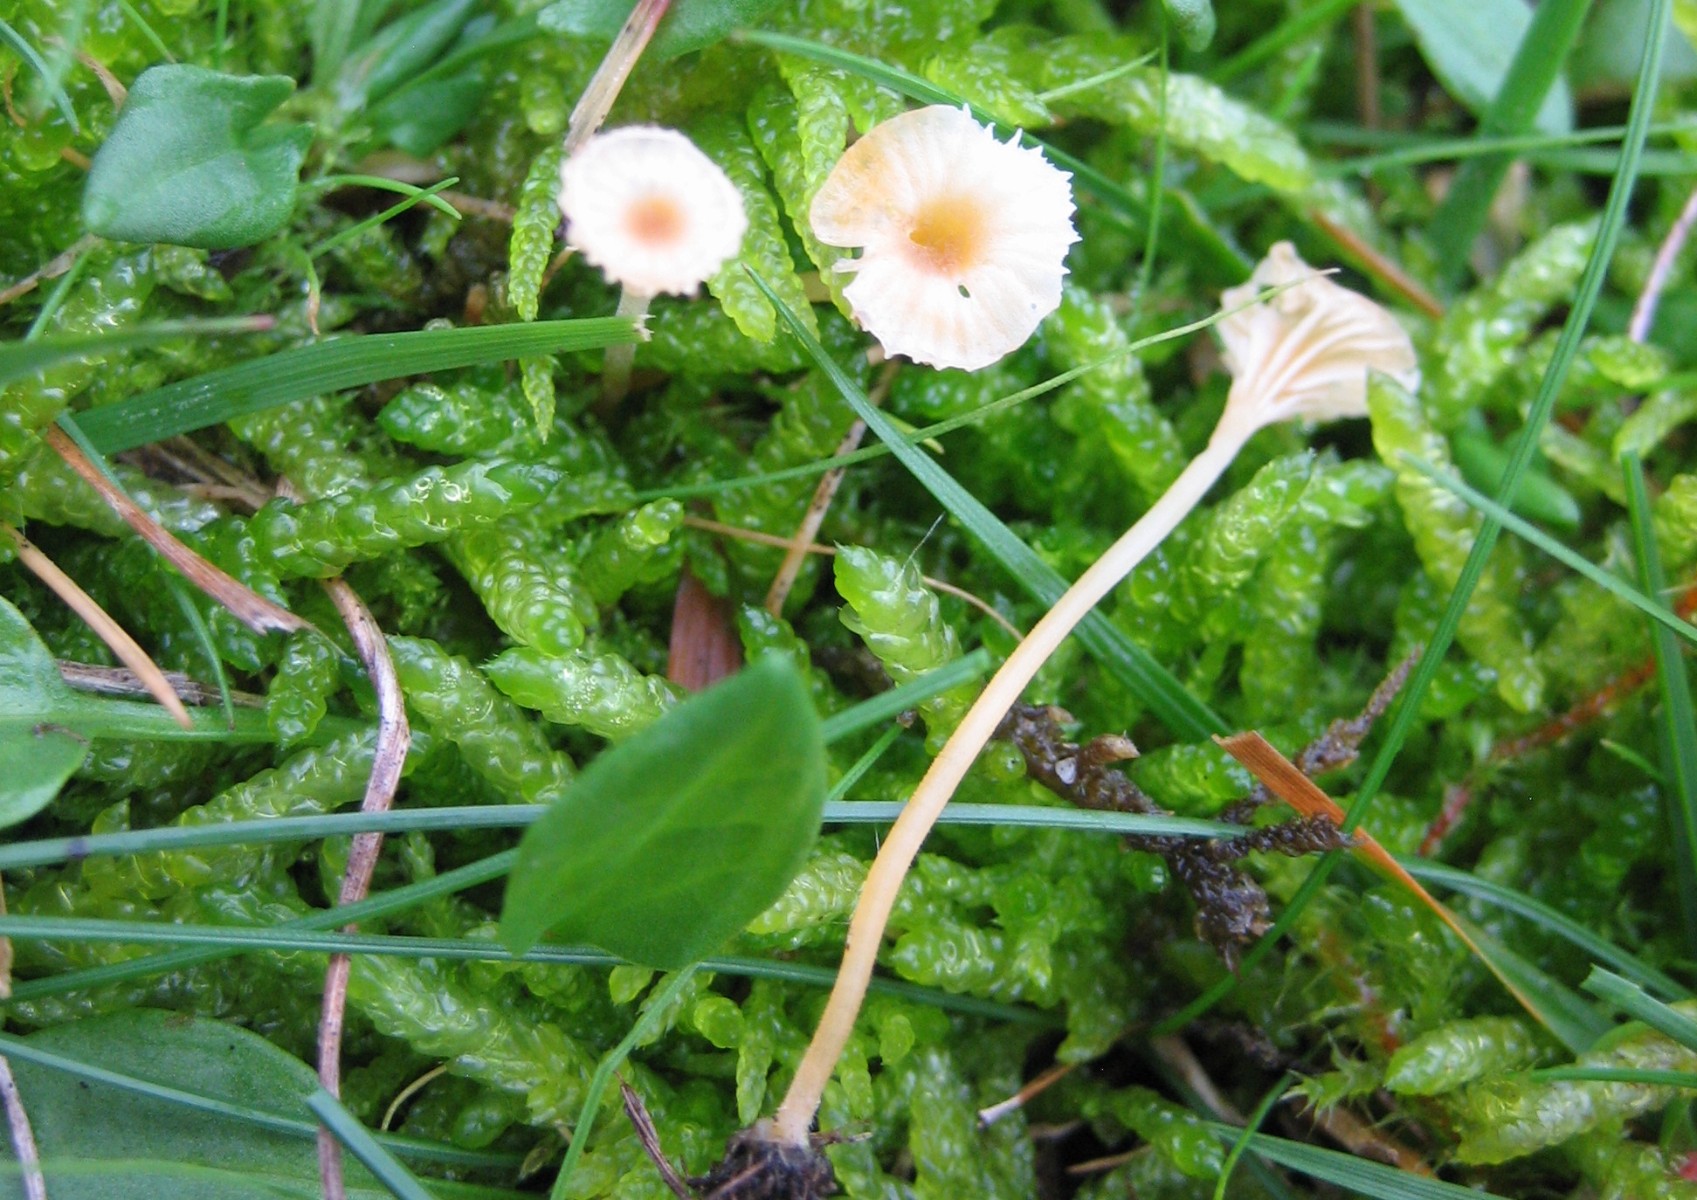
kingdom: Fungi
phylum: Basidiomycota
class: Agaricomycetes
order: Hymenochaetales
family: Rickenellaceae
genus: Rickenella
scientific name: Rickenella fibula
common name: orange mosnavlehat
